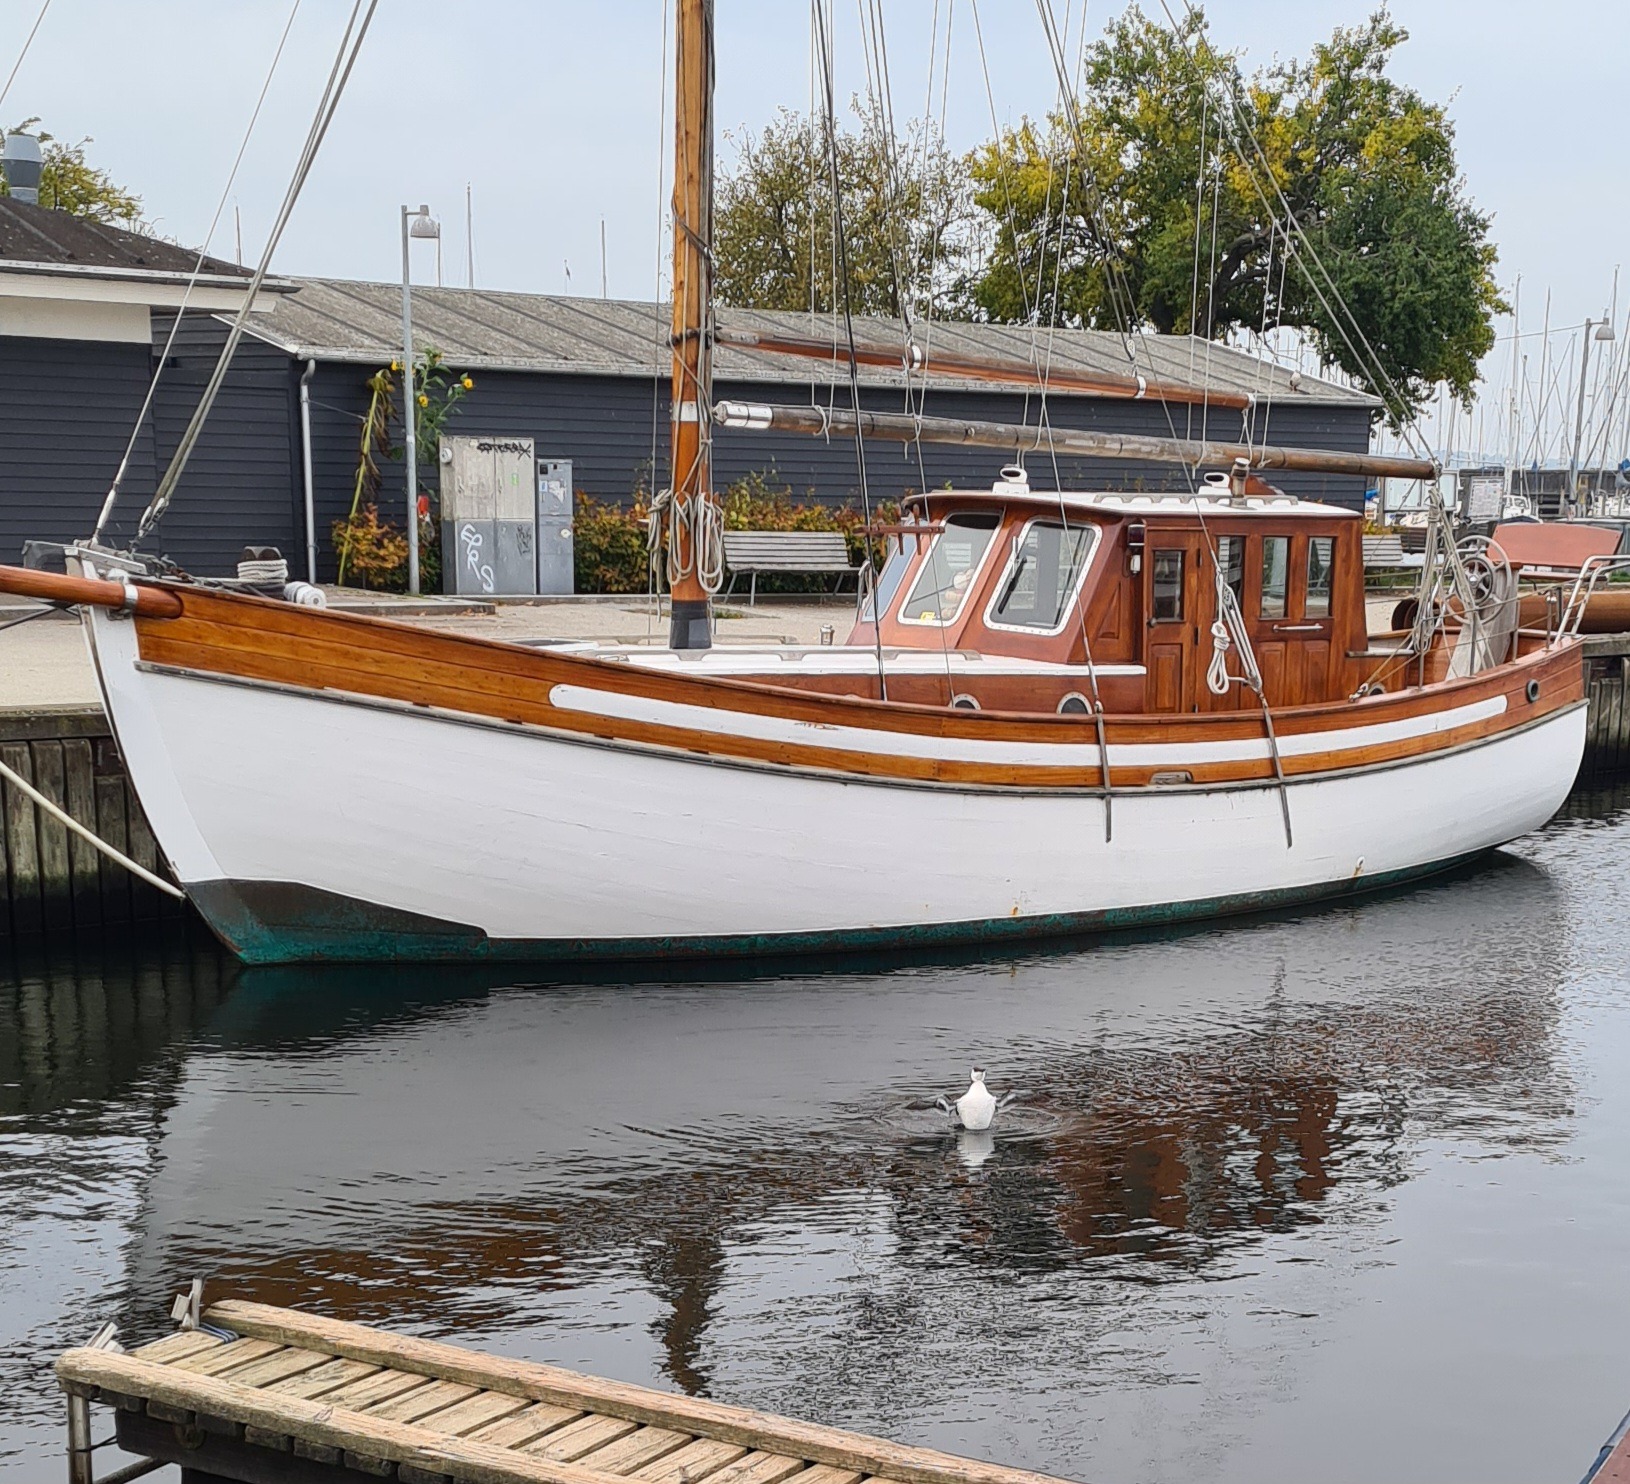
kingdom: Animalia
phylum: Chordata
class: Aves
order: Charadriiformes
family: Alcidae
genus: Uria
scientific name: Uria aalge
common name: Lomvie
